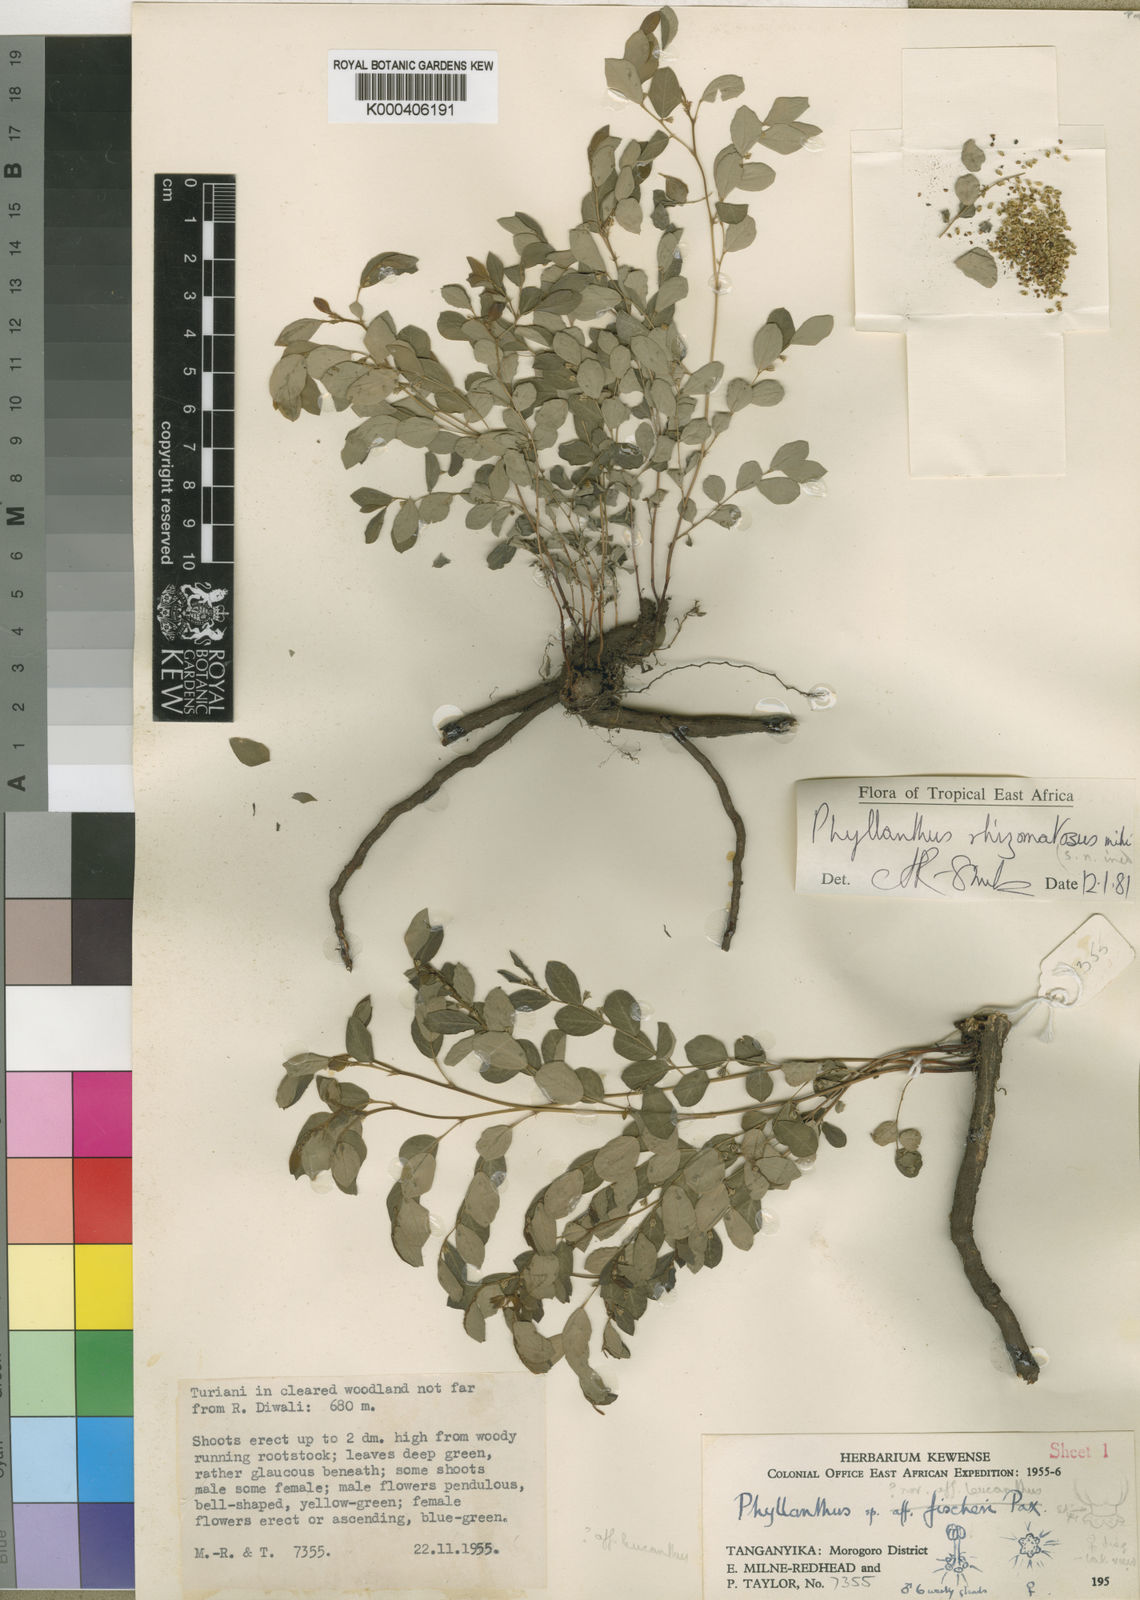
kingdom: Plantae
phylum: Tracheophyta
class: Magnoliopsida
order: Malpighiales
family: Phyllanthaceae
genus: Phyllanthus
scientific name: Phyllanthus rhizomatosus
